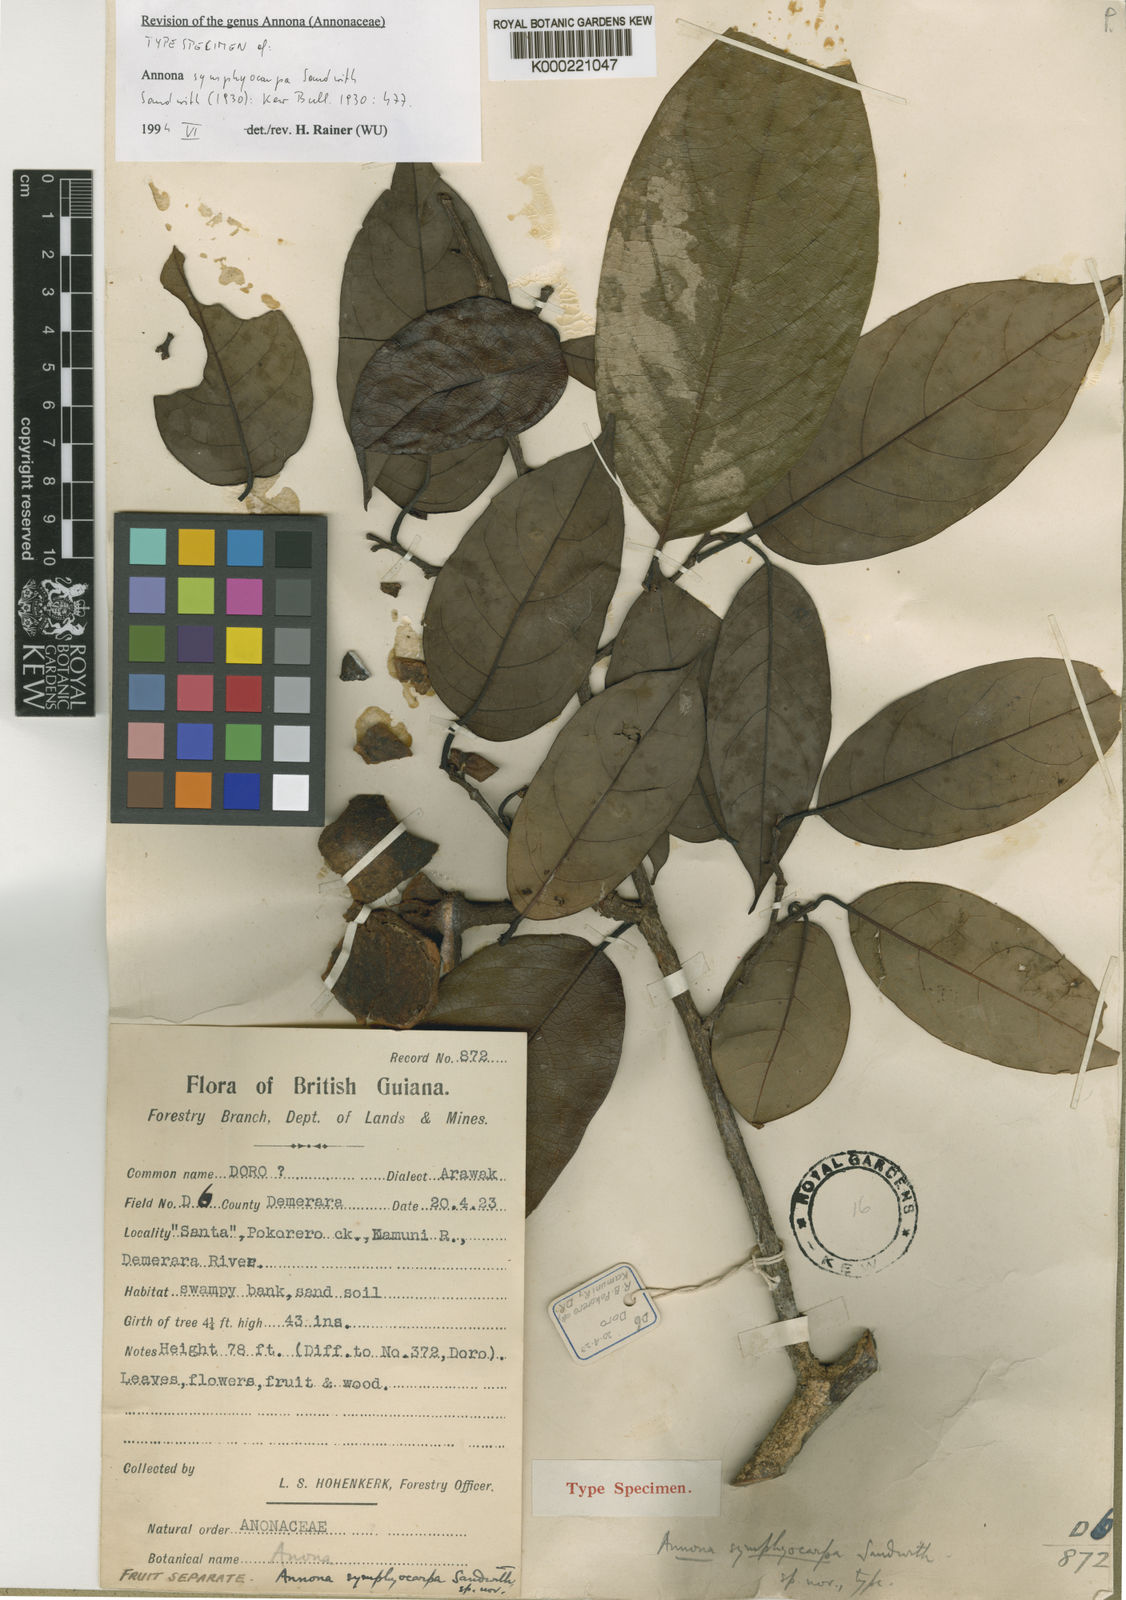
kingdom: Plantae
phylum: Tracheophyta
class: Magnoliopsida
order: Magnoliales
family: Annonaceae
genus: Annona
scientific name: Annona symphyocarpa
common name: Custard apple
